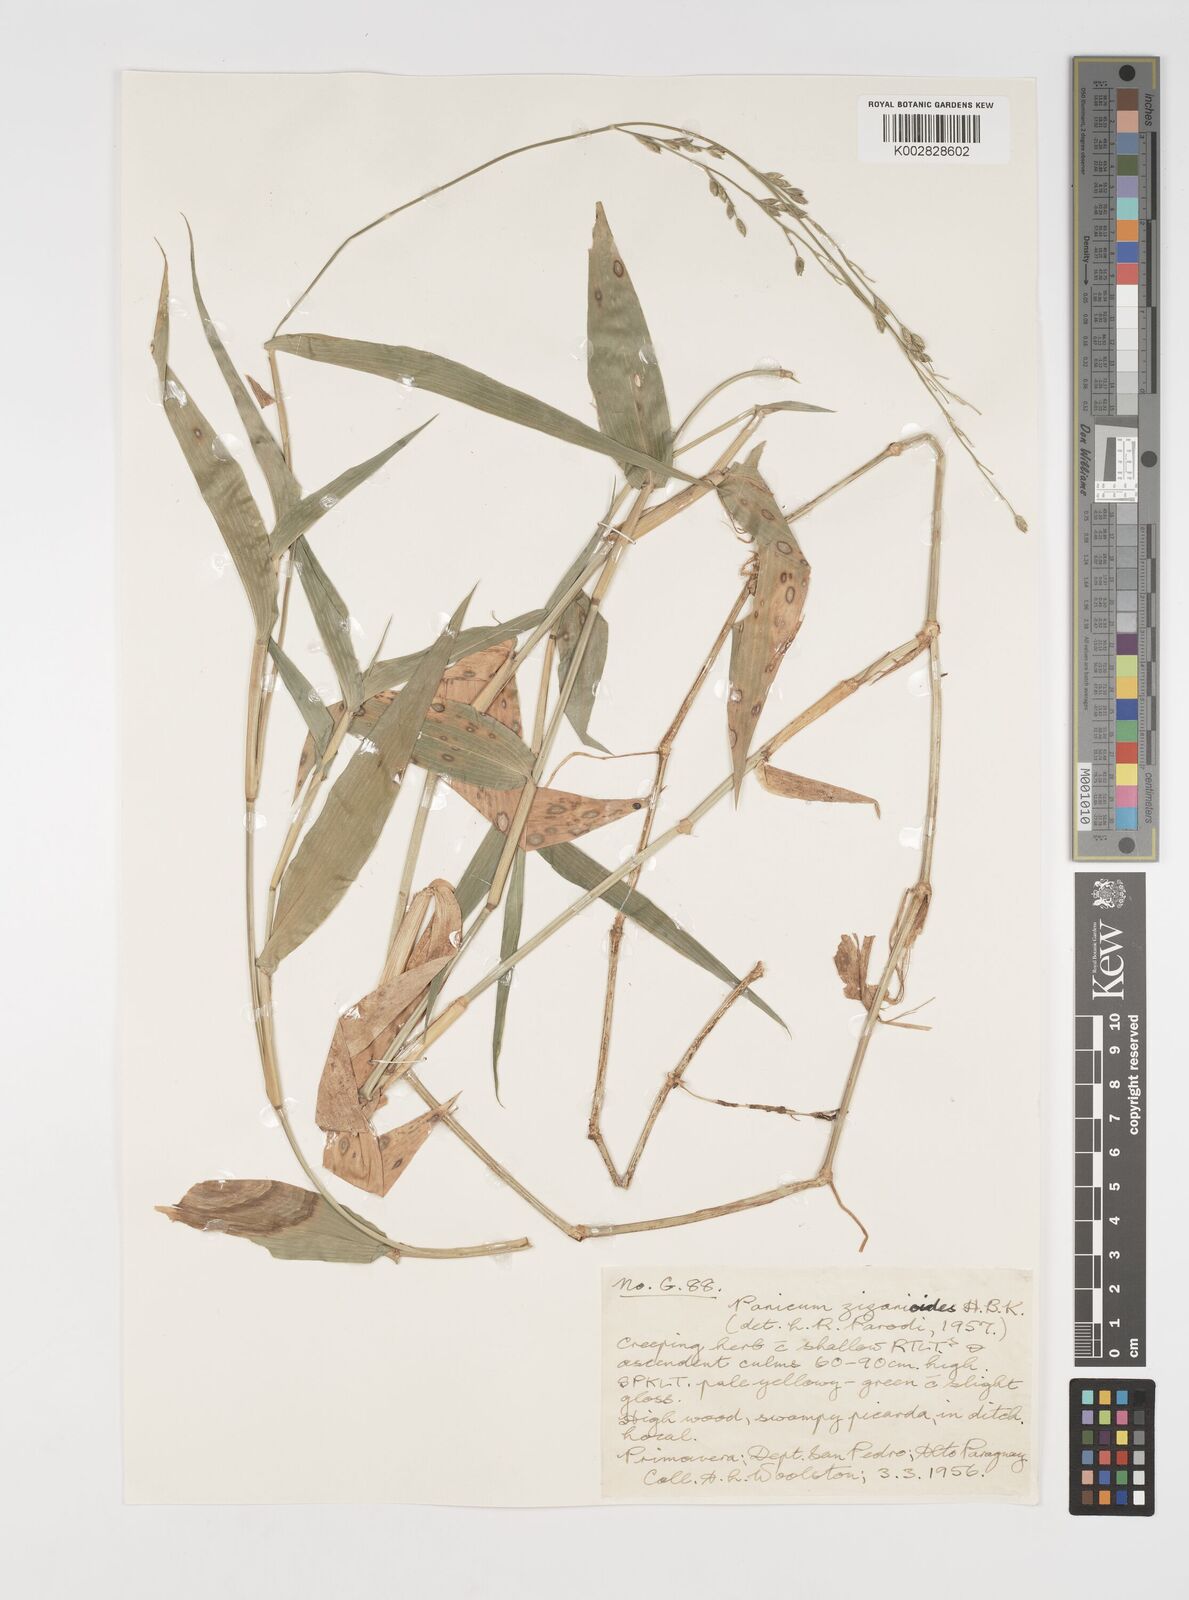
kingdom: Plantae
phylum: Tracheophyta
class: Liliopsida
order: Poales
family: Poaceae
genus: Acroceras
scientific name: Acroceras zizanioides
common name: Oat grass
